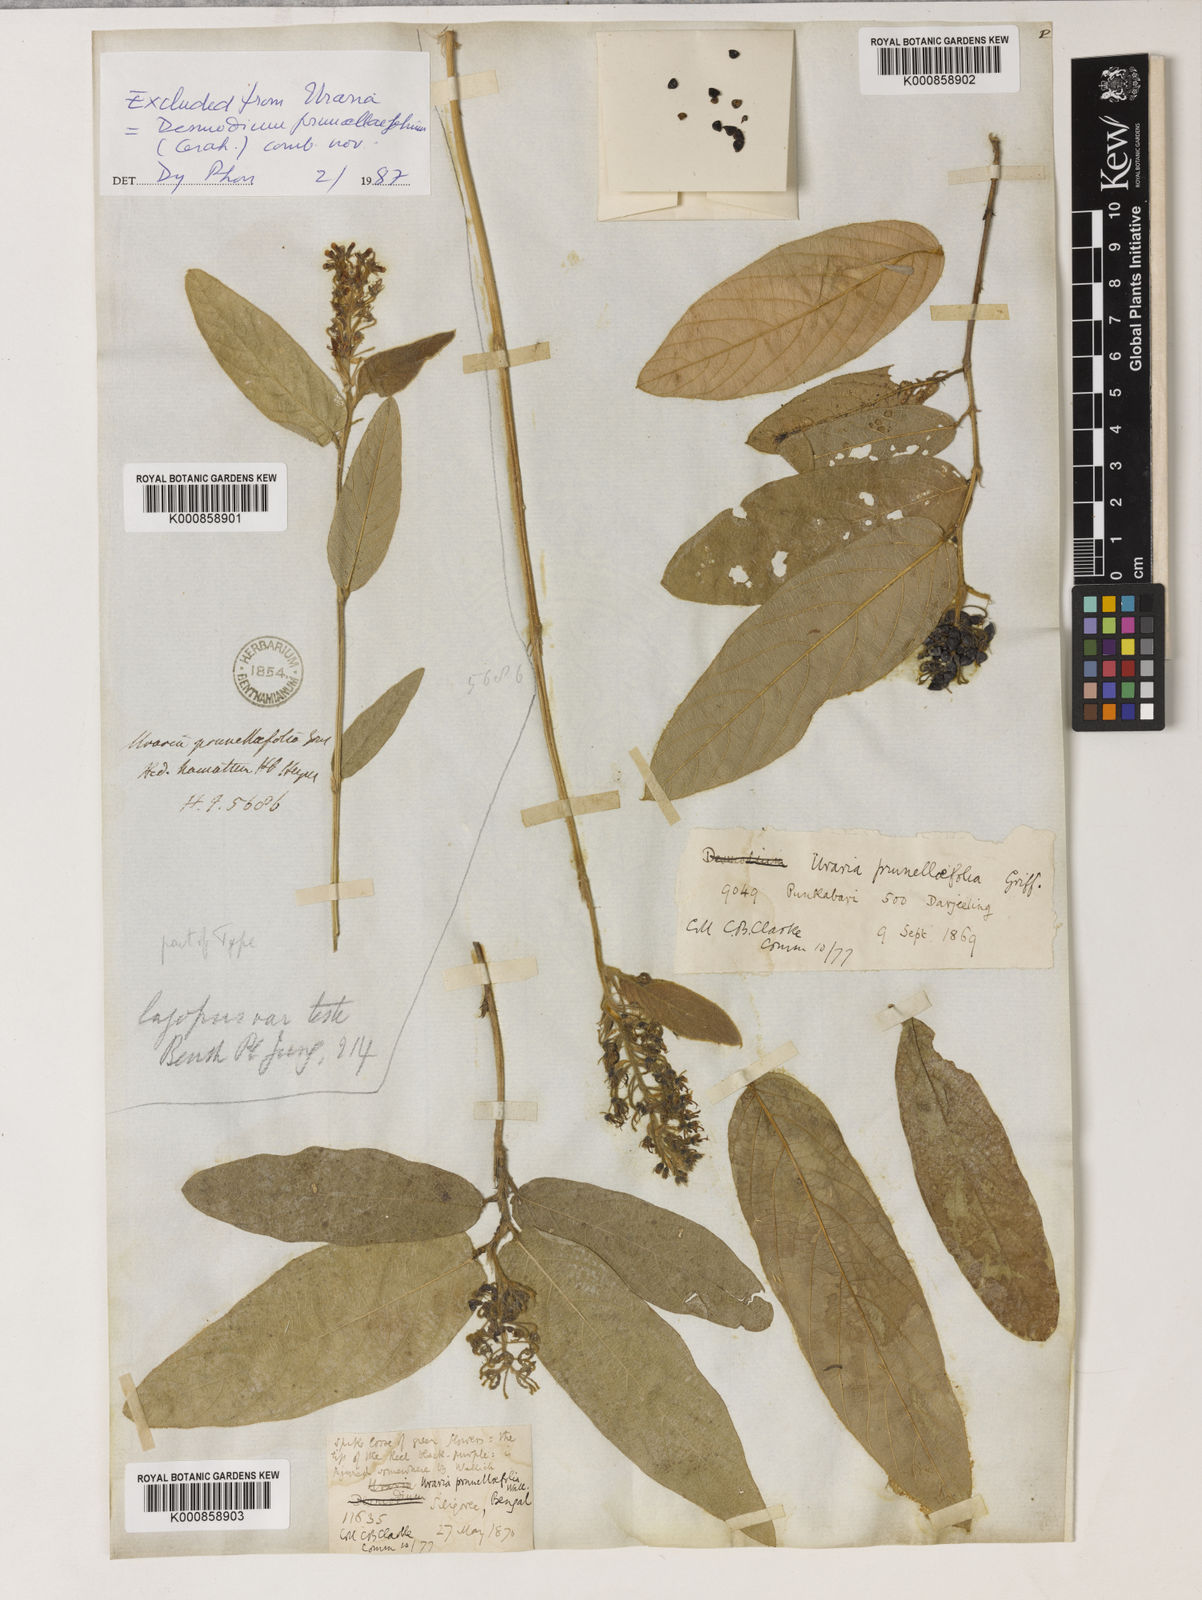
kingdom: Plantae
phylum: Tracheophyta
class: Magnoliopsida
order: Fabales
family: Fabaceae
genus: Uraria
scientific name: Uraria
